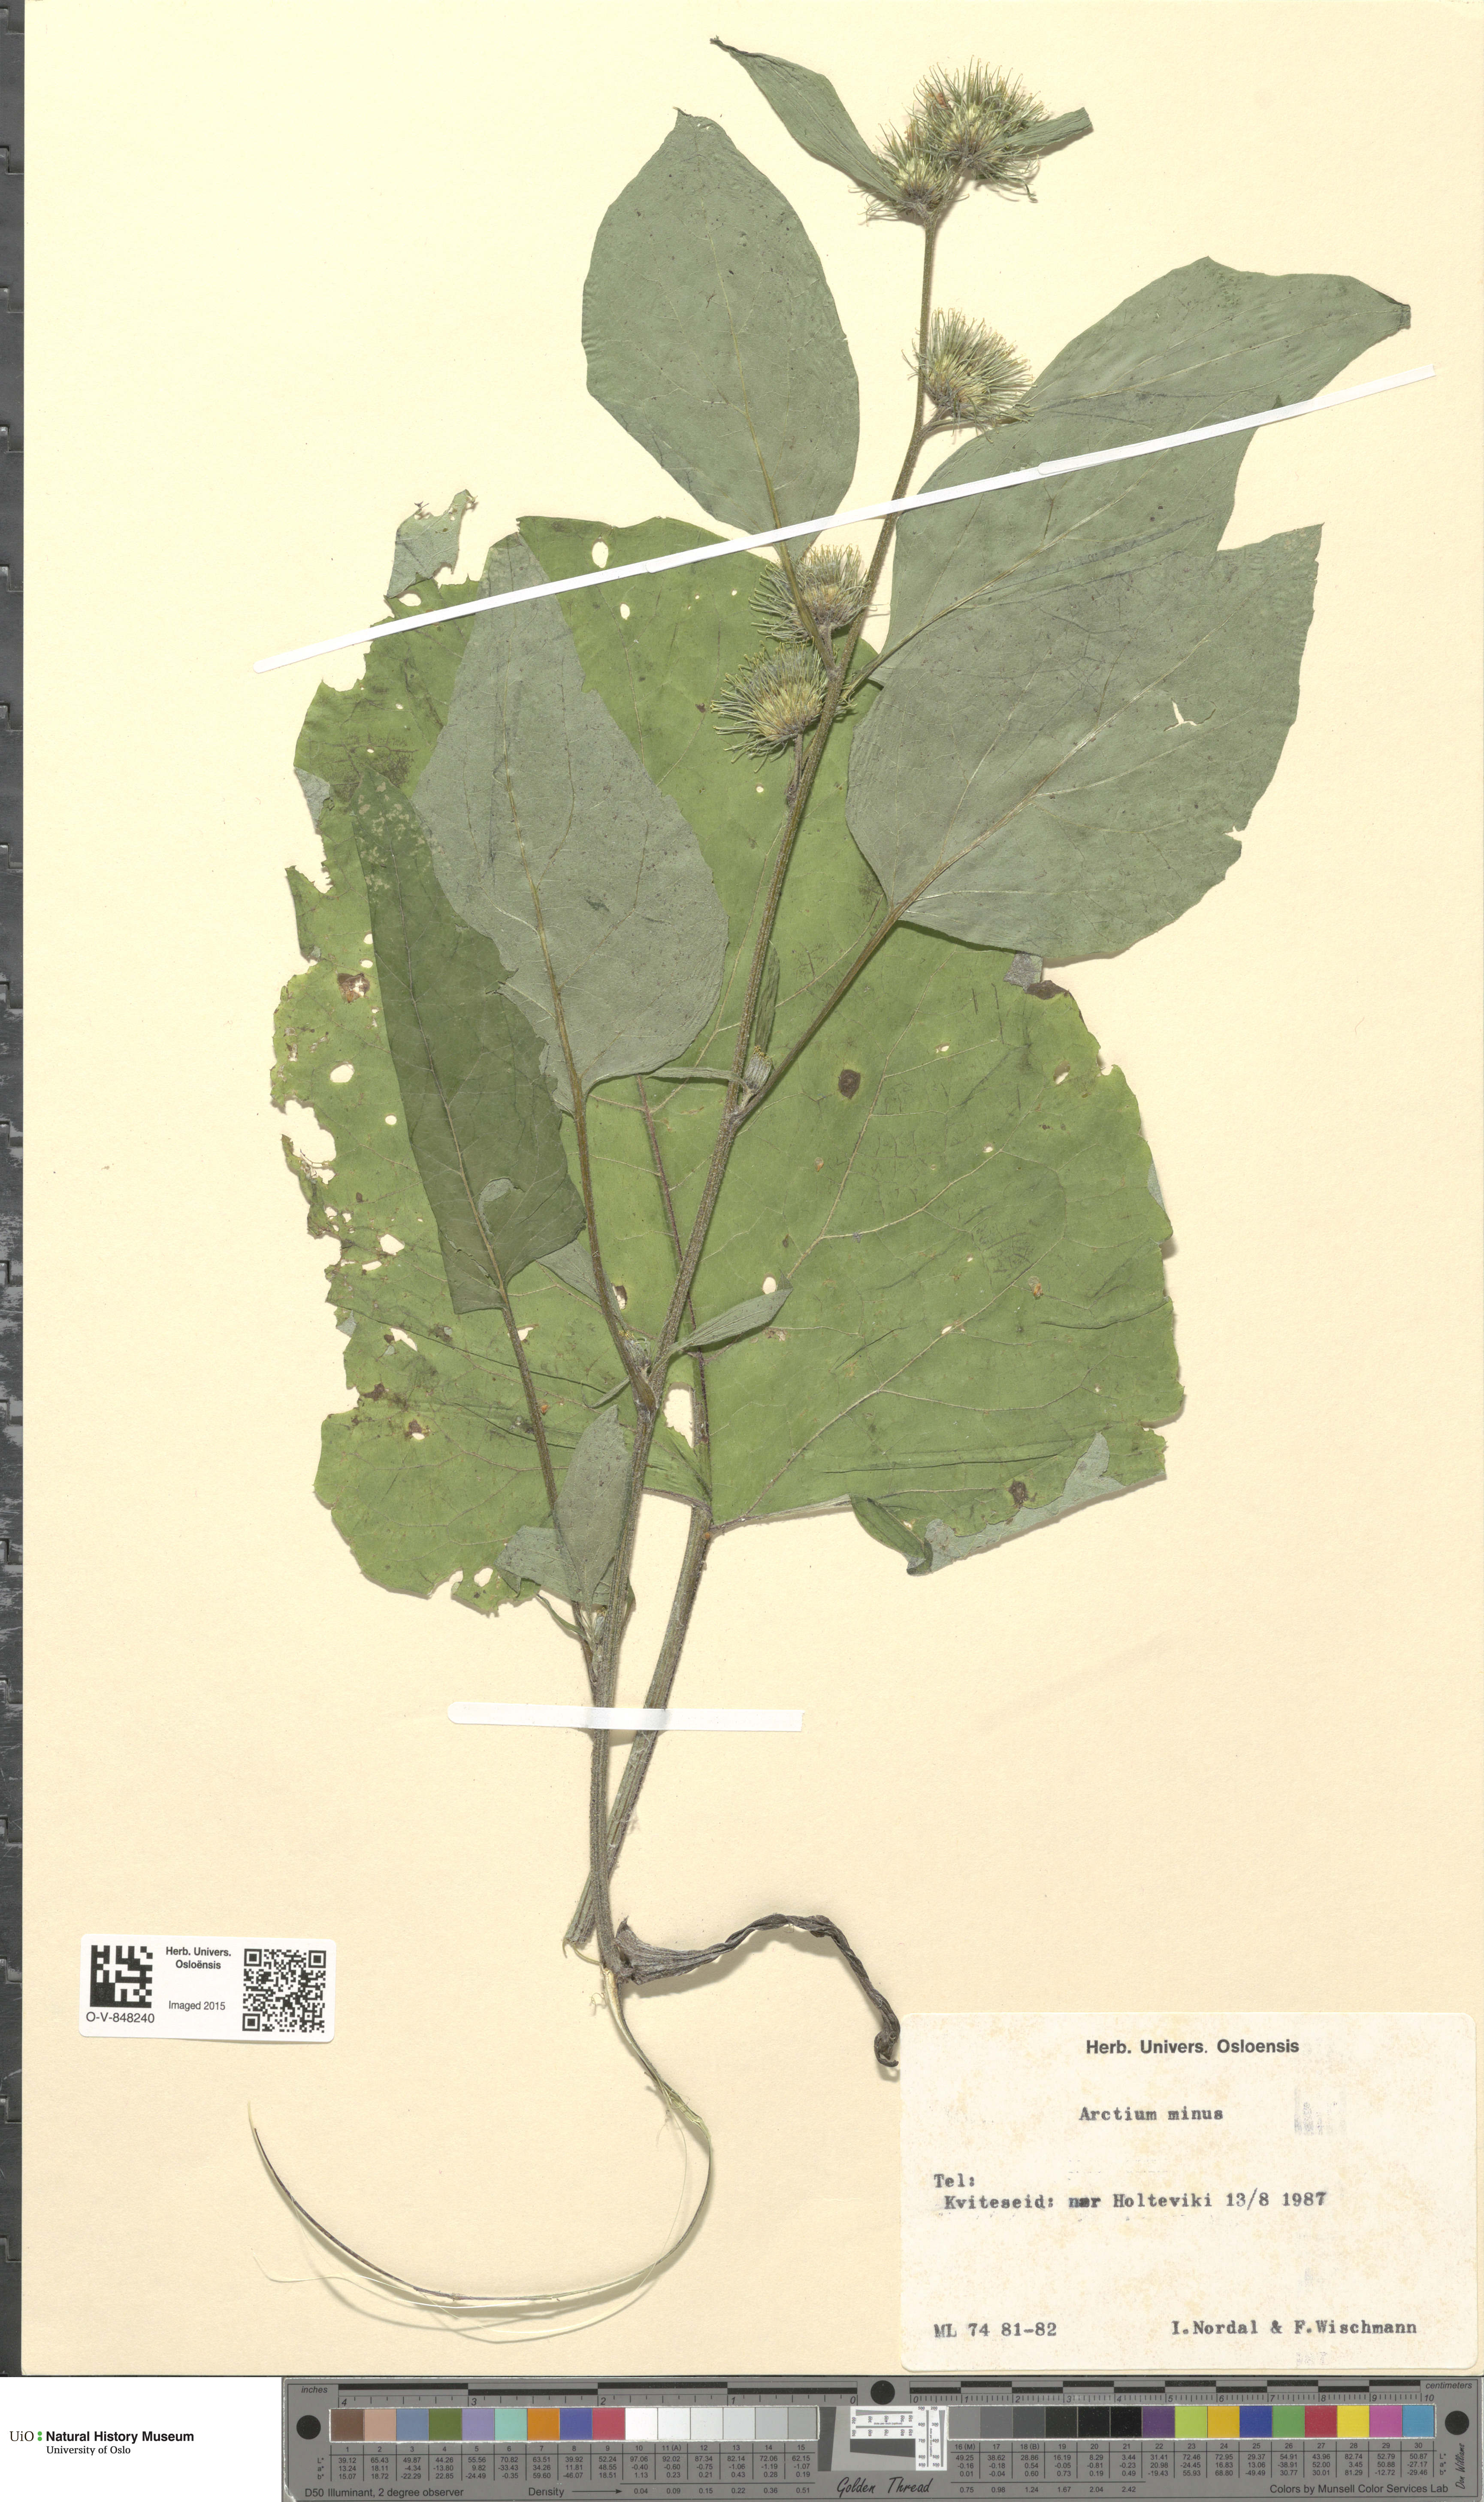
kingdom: Plantae
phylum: Tracheophyta
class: Magnoliopsida
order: Asterales
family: Asteraceae
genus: Arctium
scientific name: Arctium minus
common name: Lesser burdock
